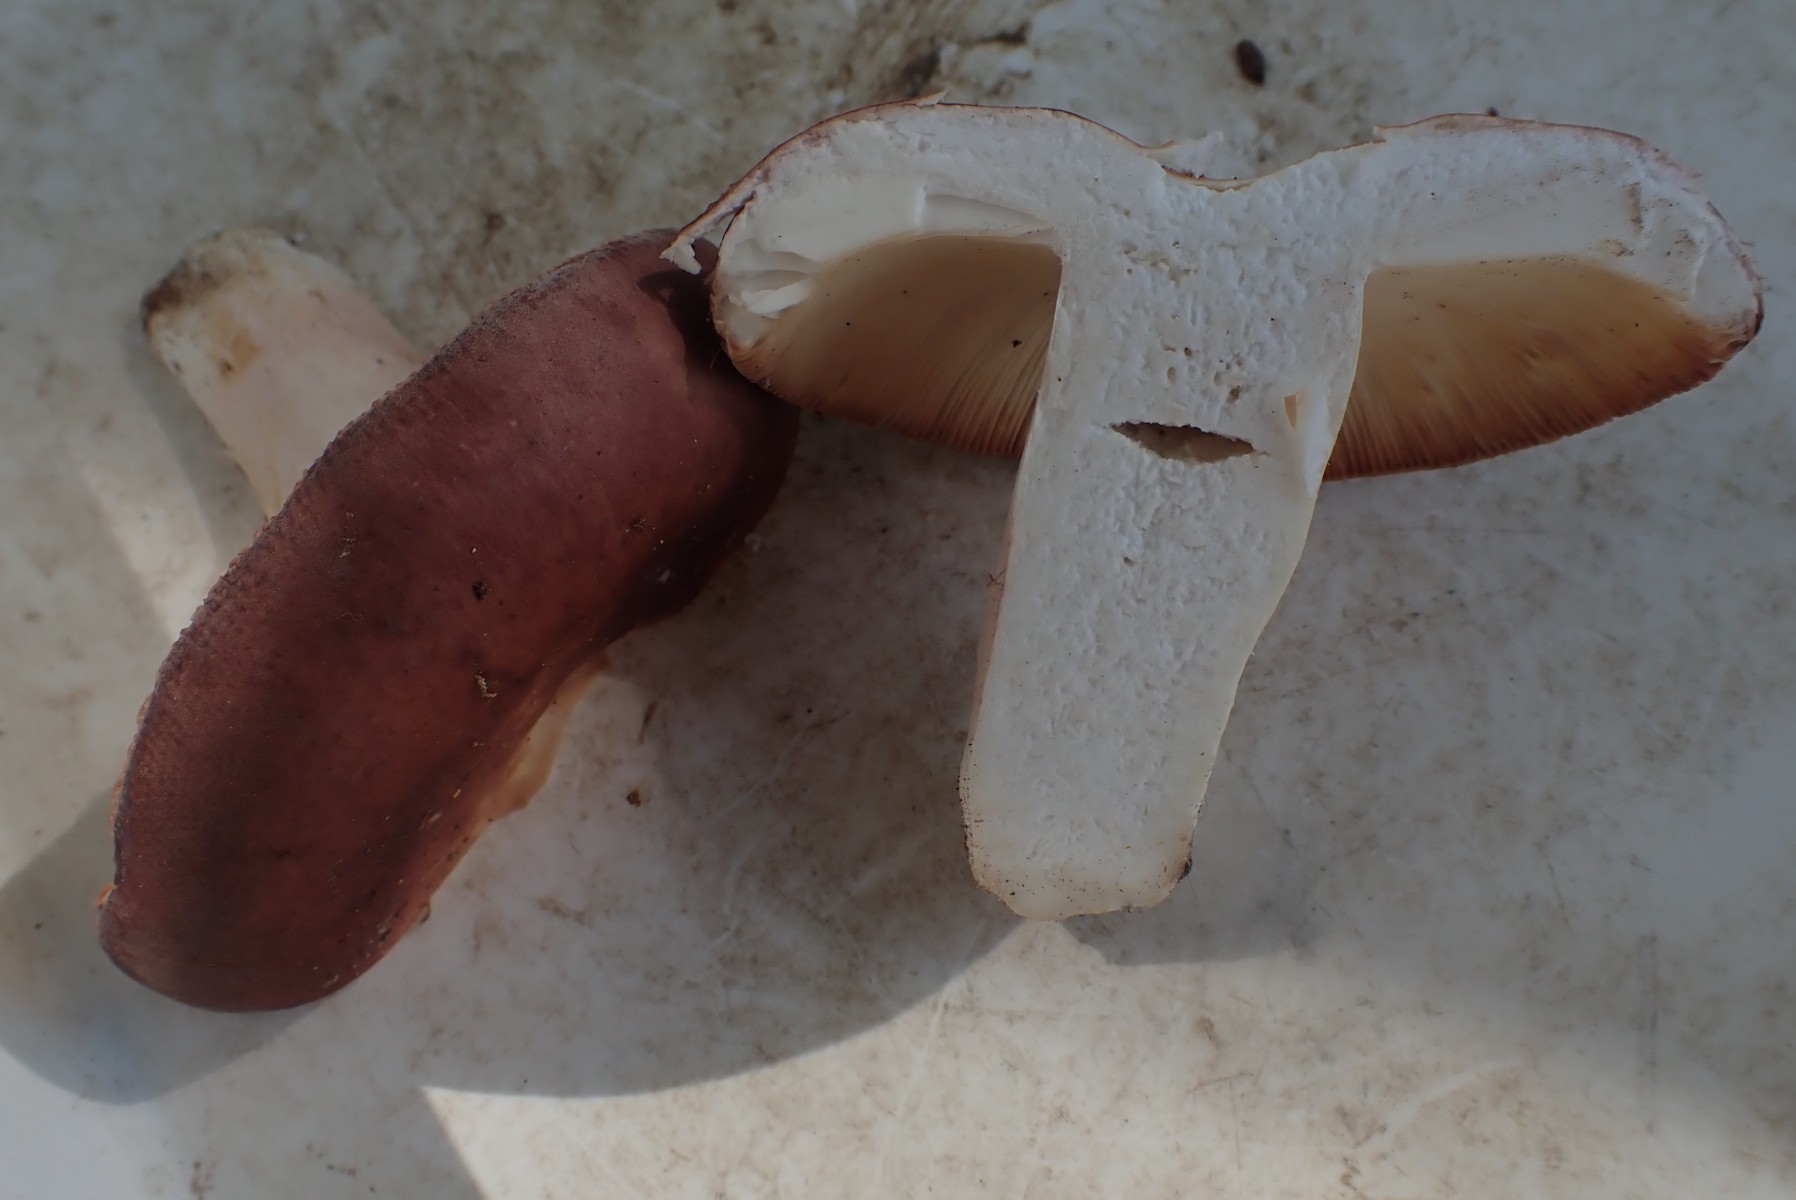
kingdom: Fungi
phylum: Basidiomycota
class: Agaricomycetes
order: Russulales
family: Russulaceae
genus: Russula
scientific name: Russula
